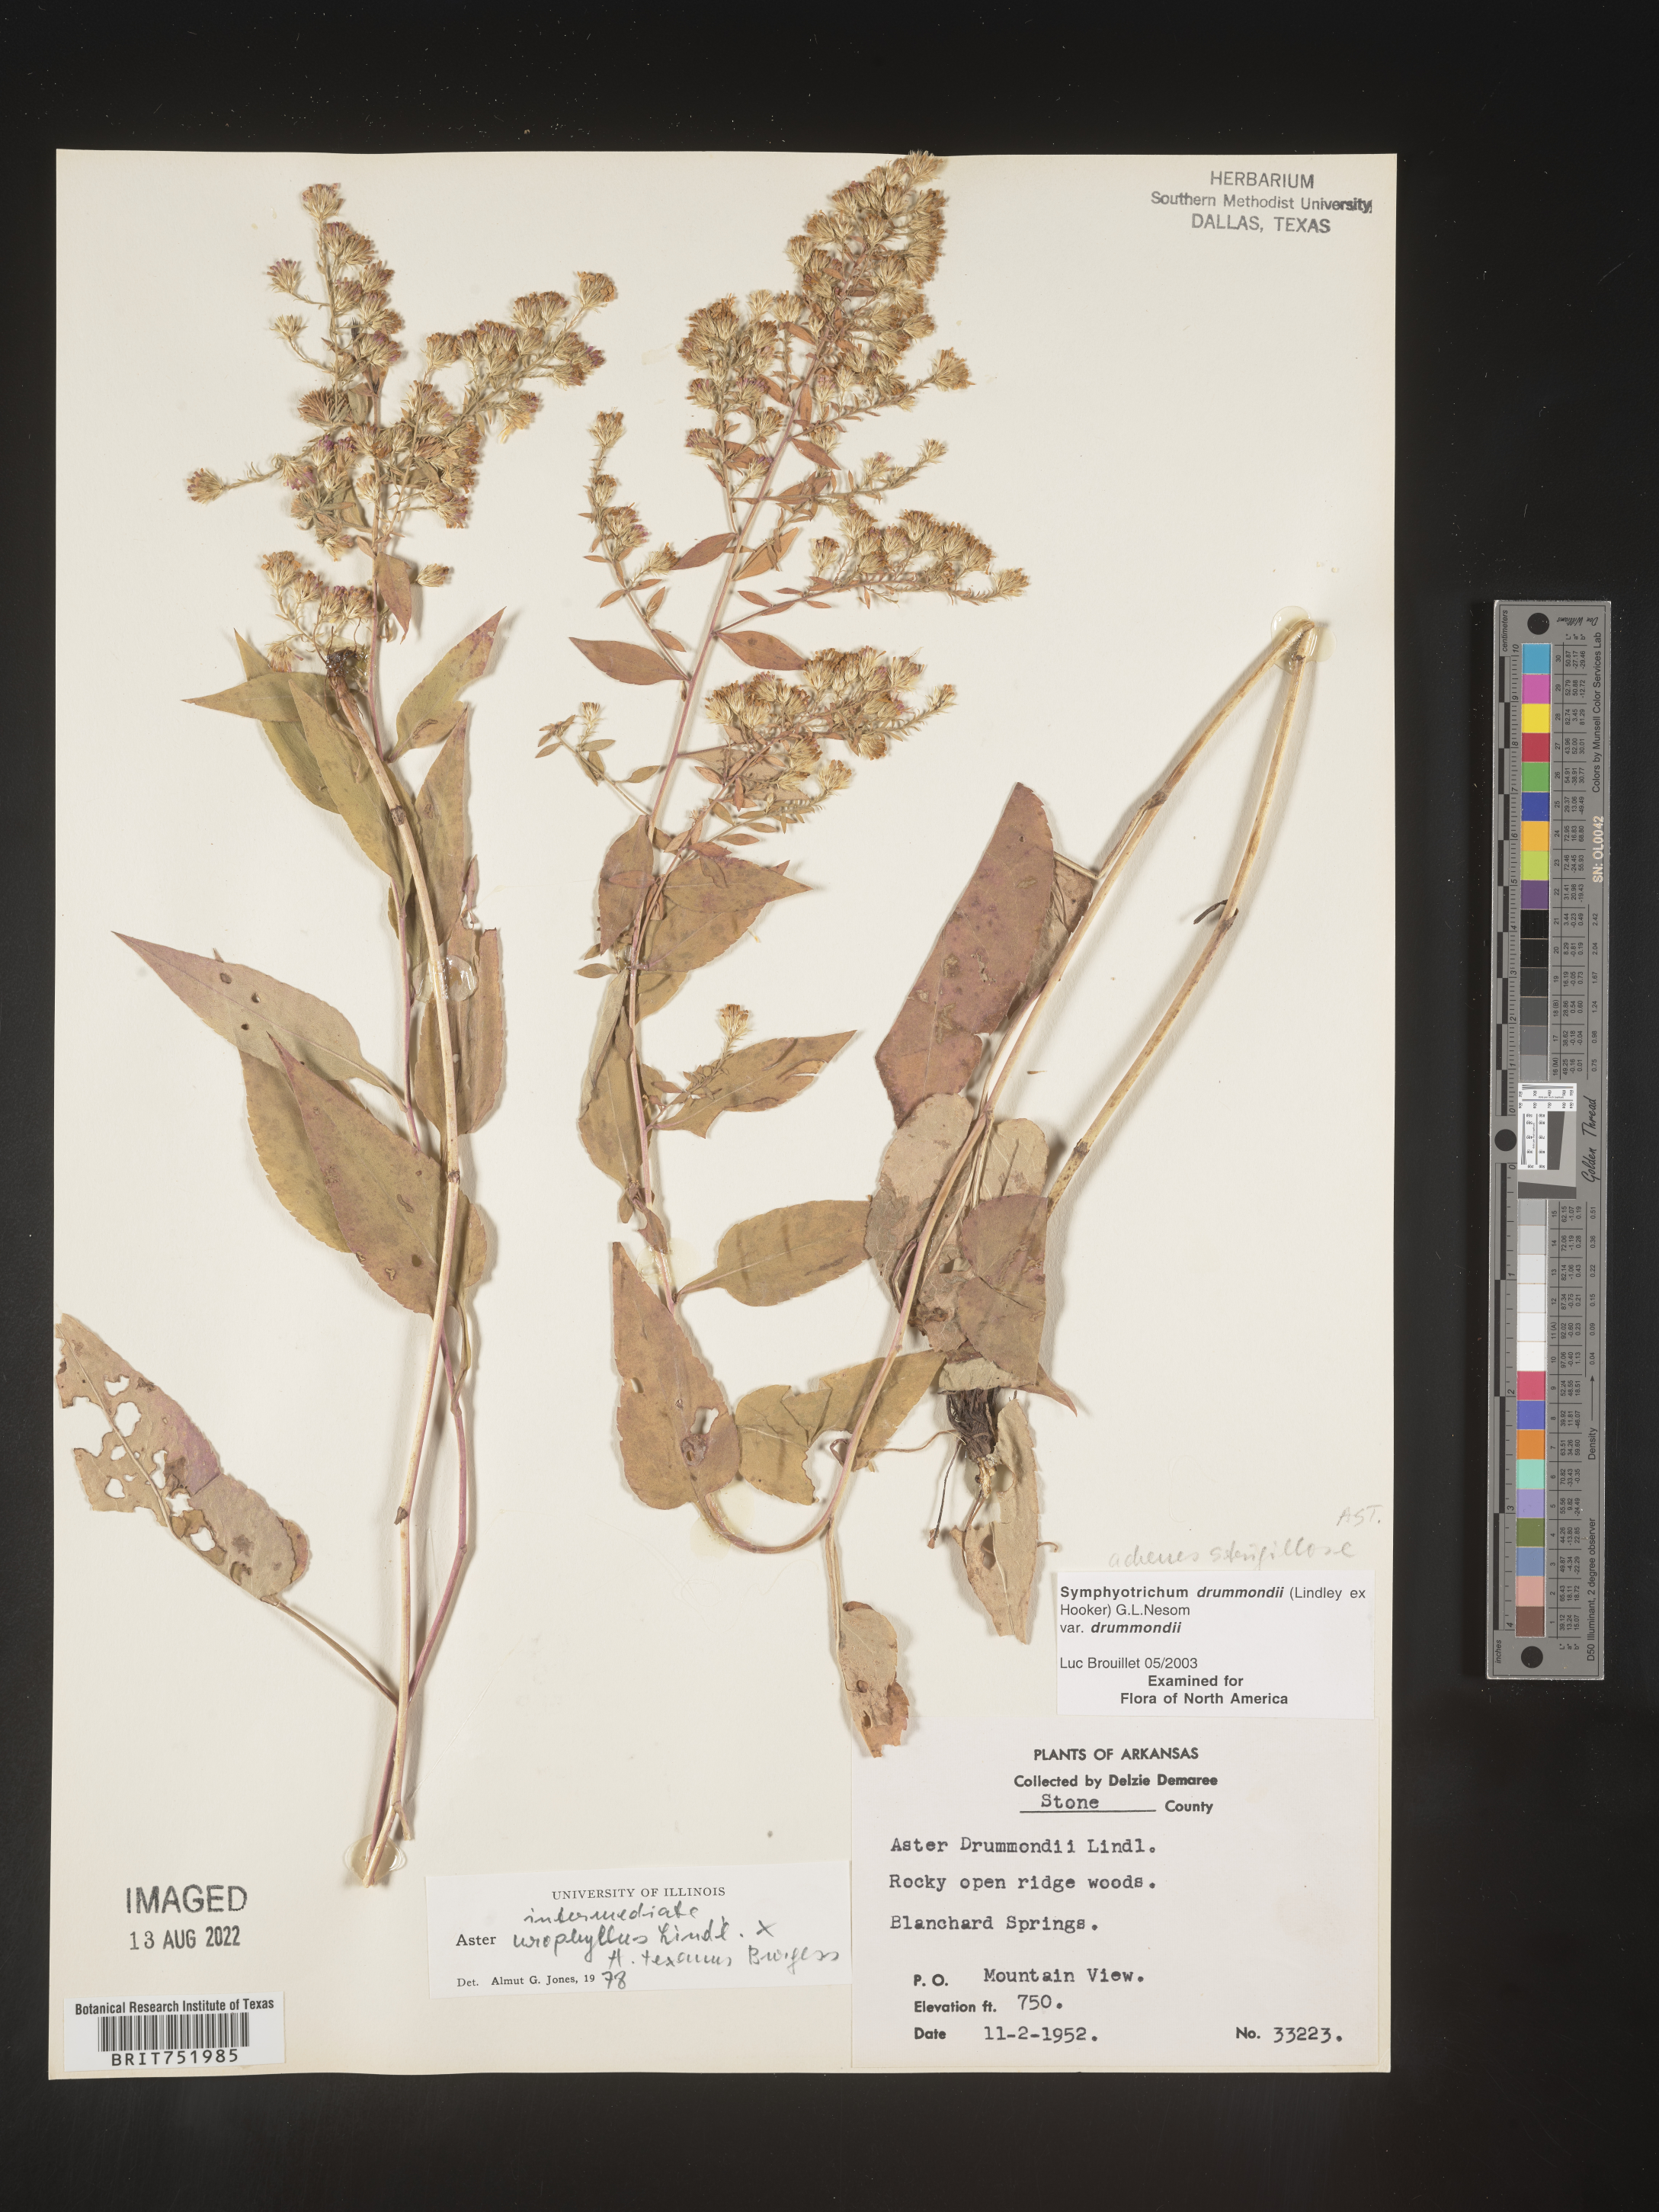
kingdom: Plantae
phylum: Tracheophyta
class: Magnoliopsida
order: Asterales
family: Asteraceae
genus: Symphyotrichum
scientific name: Symphyotrichum drummondii
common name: Drummond's aster
